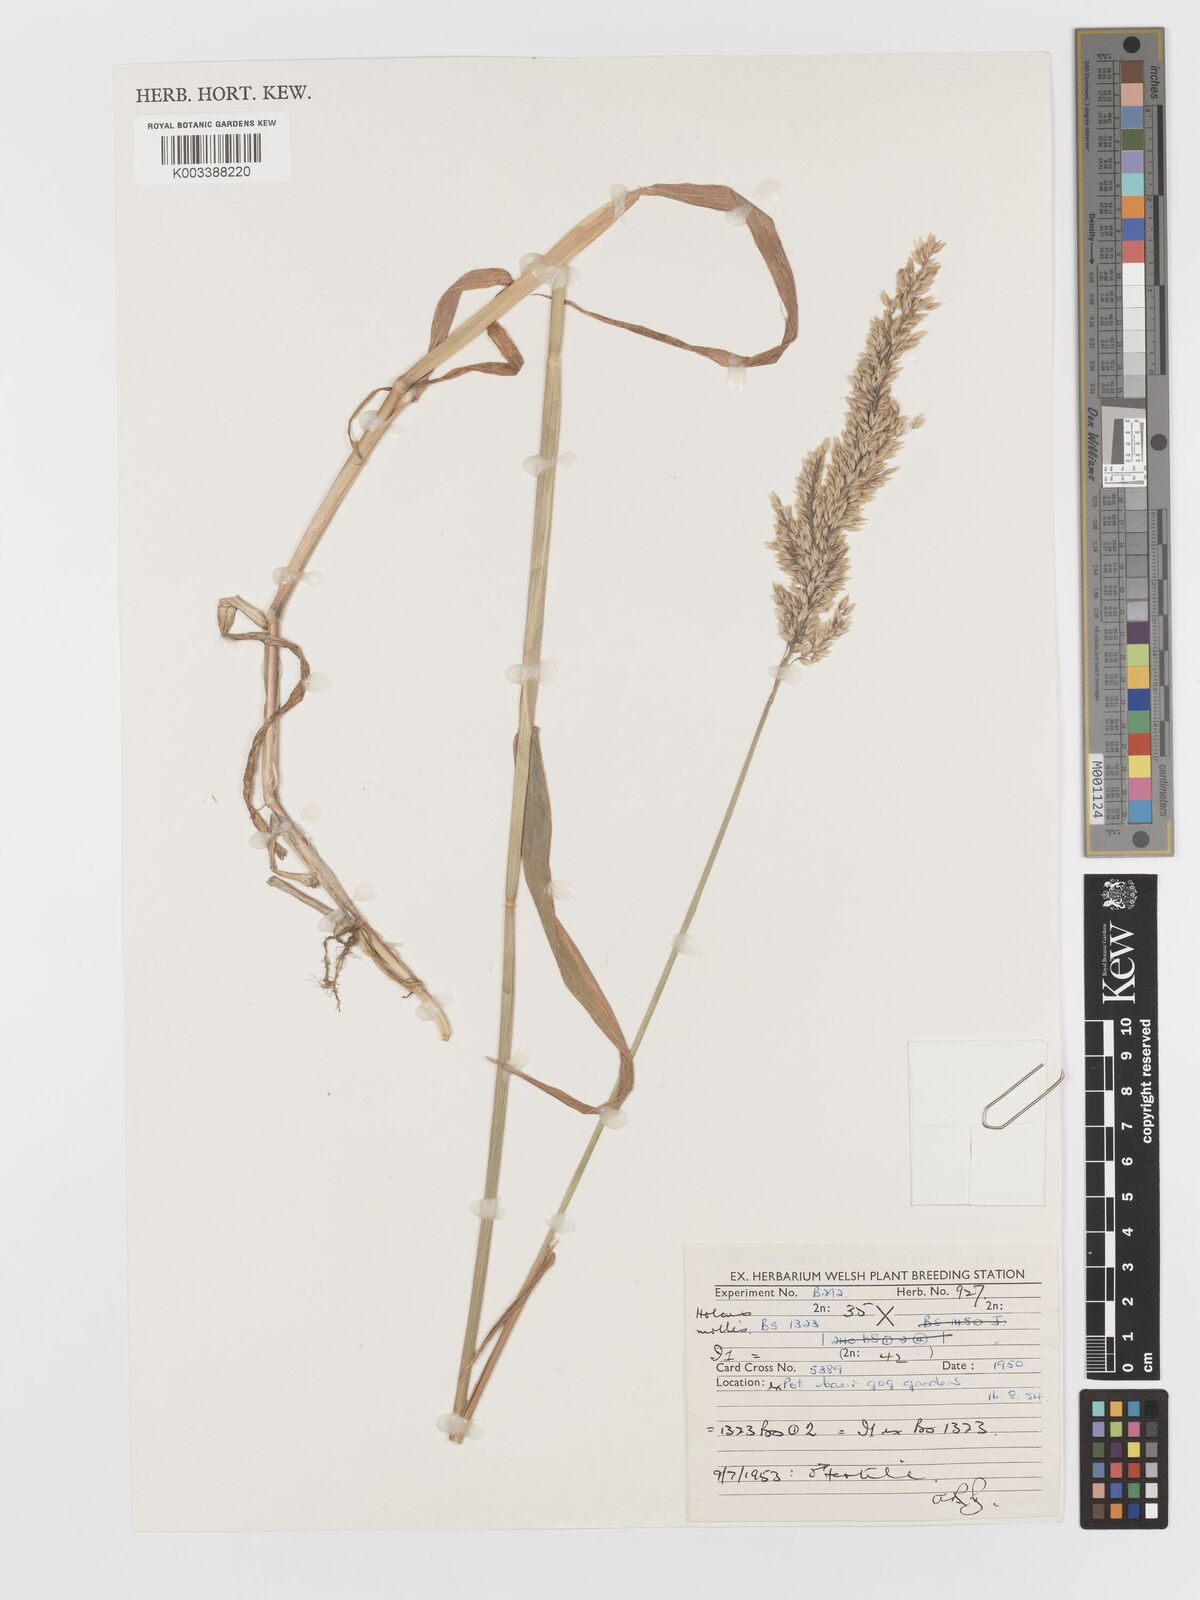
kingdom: Plantae
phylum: Tracheophyta
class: Liliopsida
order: Poales
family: Poaceae
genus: Holcus
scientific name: Holcus mollis
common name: Creeping velvetgrass
